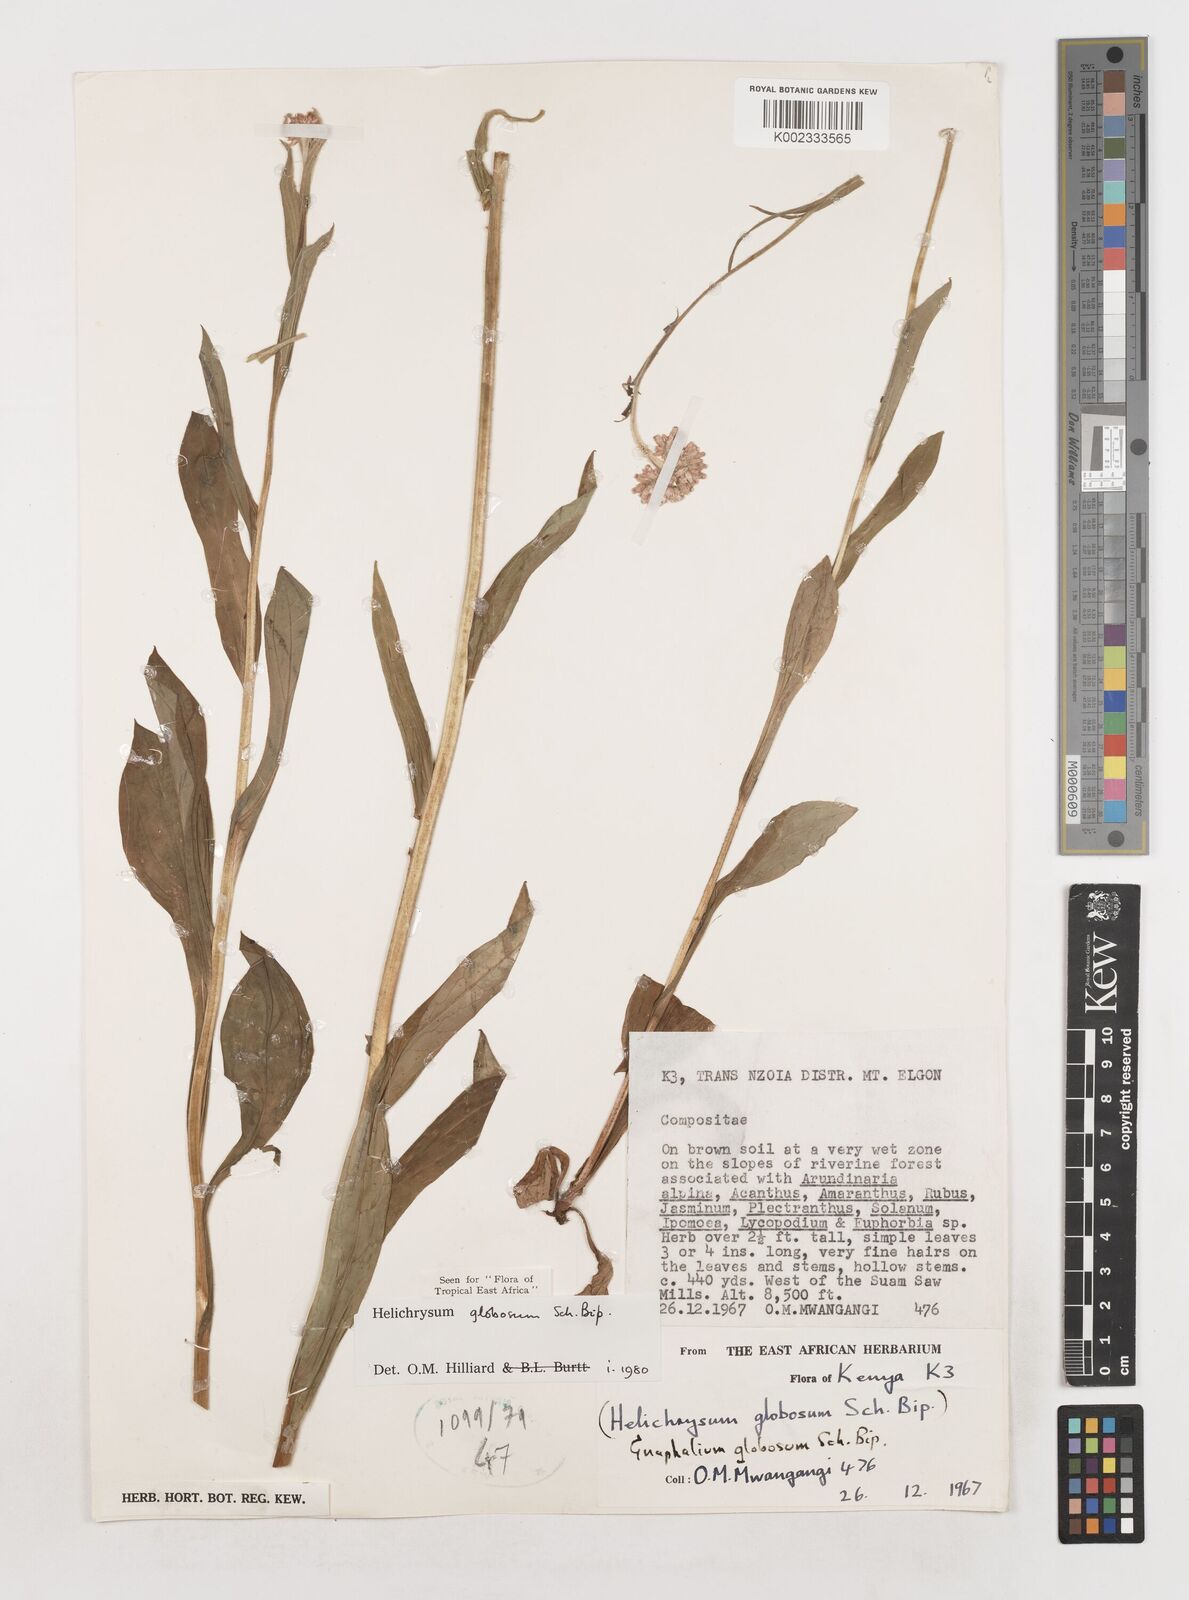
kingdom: Plantae
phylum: Tracheophyta
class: Magnoliopsida
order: Asterales
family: Asteraceae
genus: Helichrysum
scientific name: Helichrysum globosum
